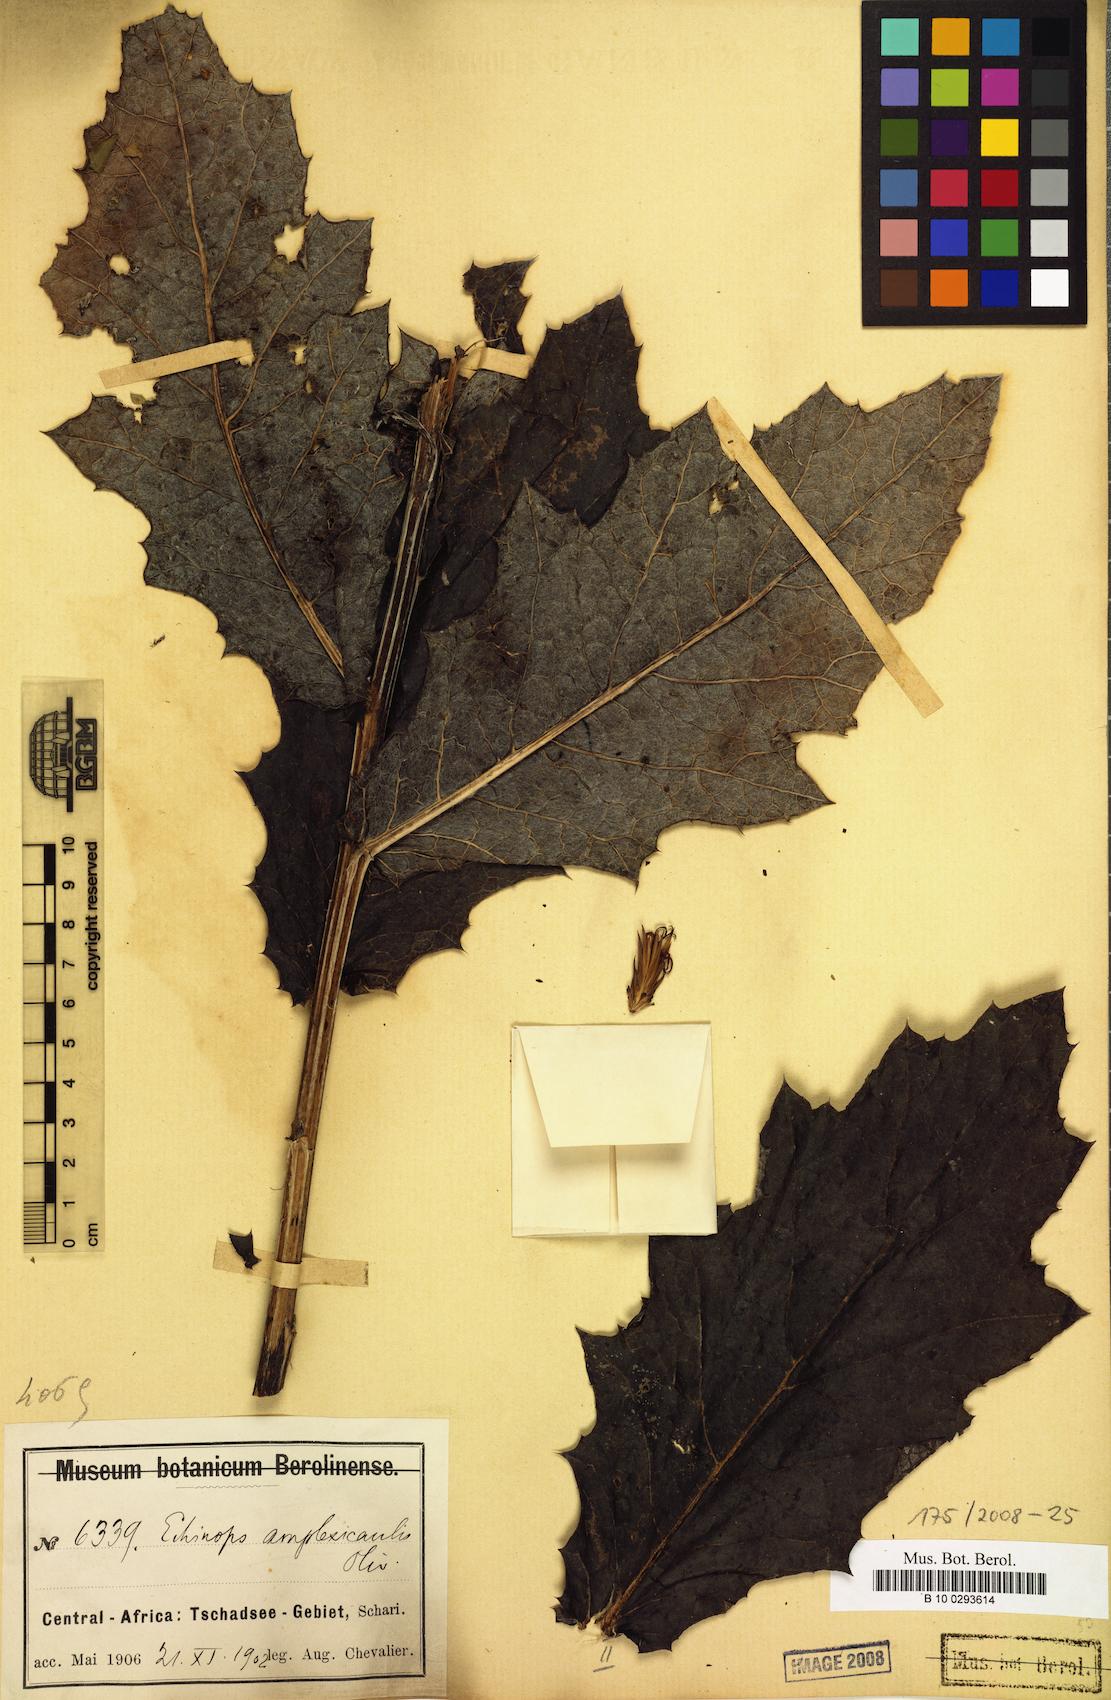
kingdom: Plantae
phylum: Tracheophyta
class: Magnoliopsida
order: Asterales
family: Asteraceae
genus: Echinops
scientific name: Echinops amplexicaulis
